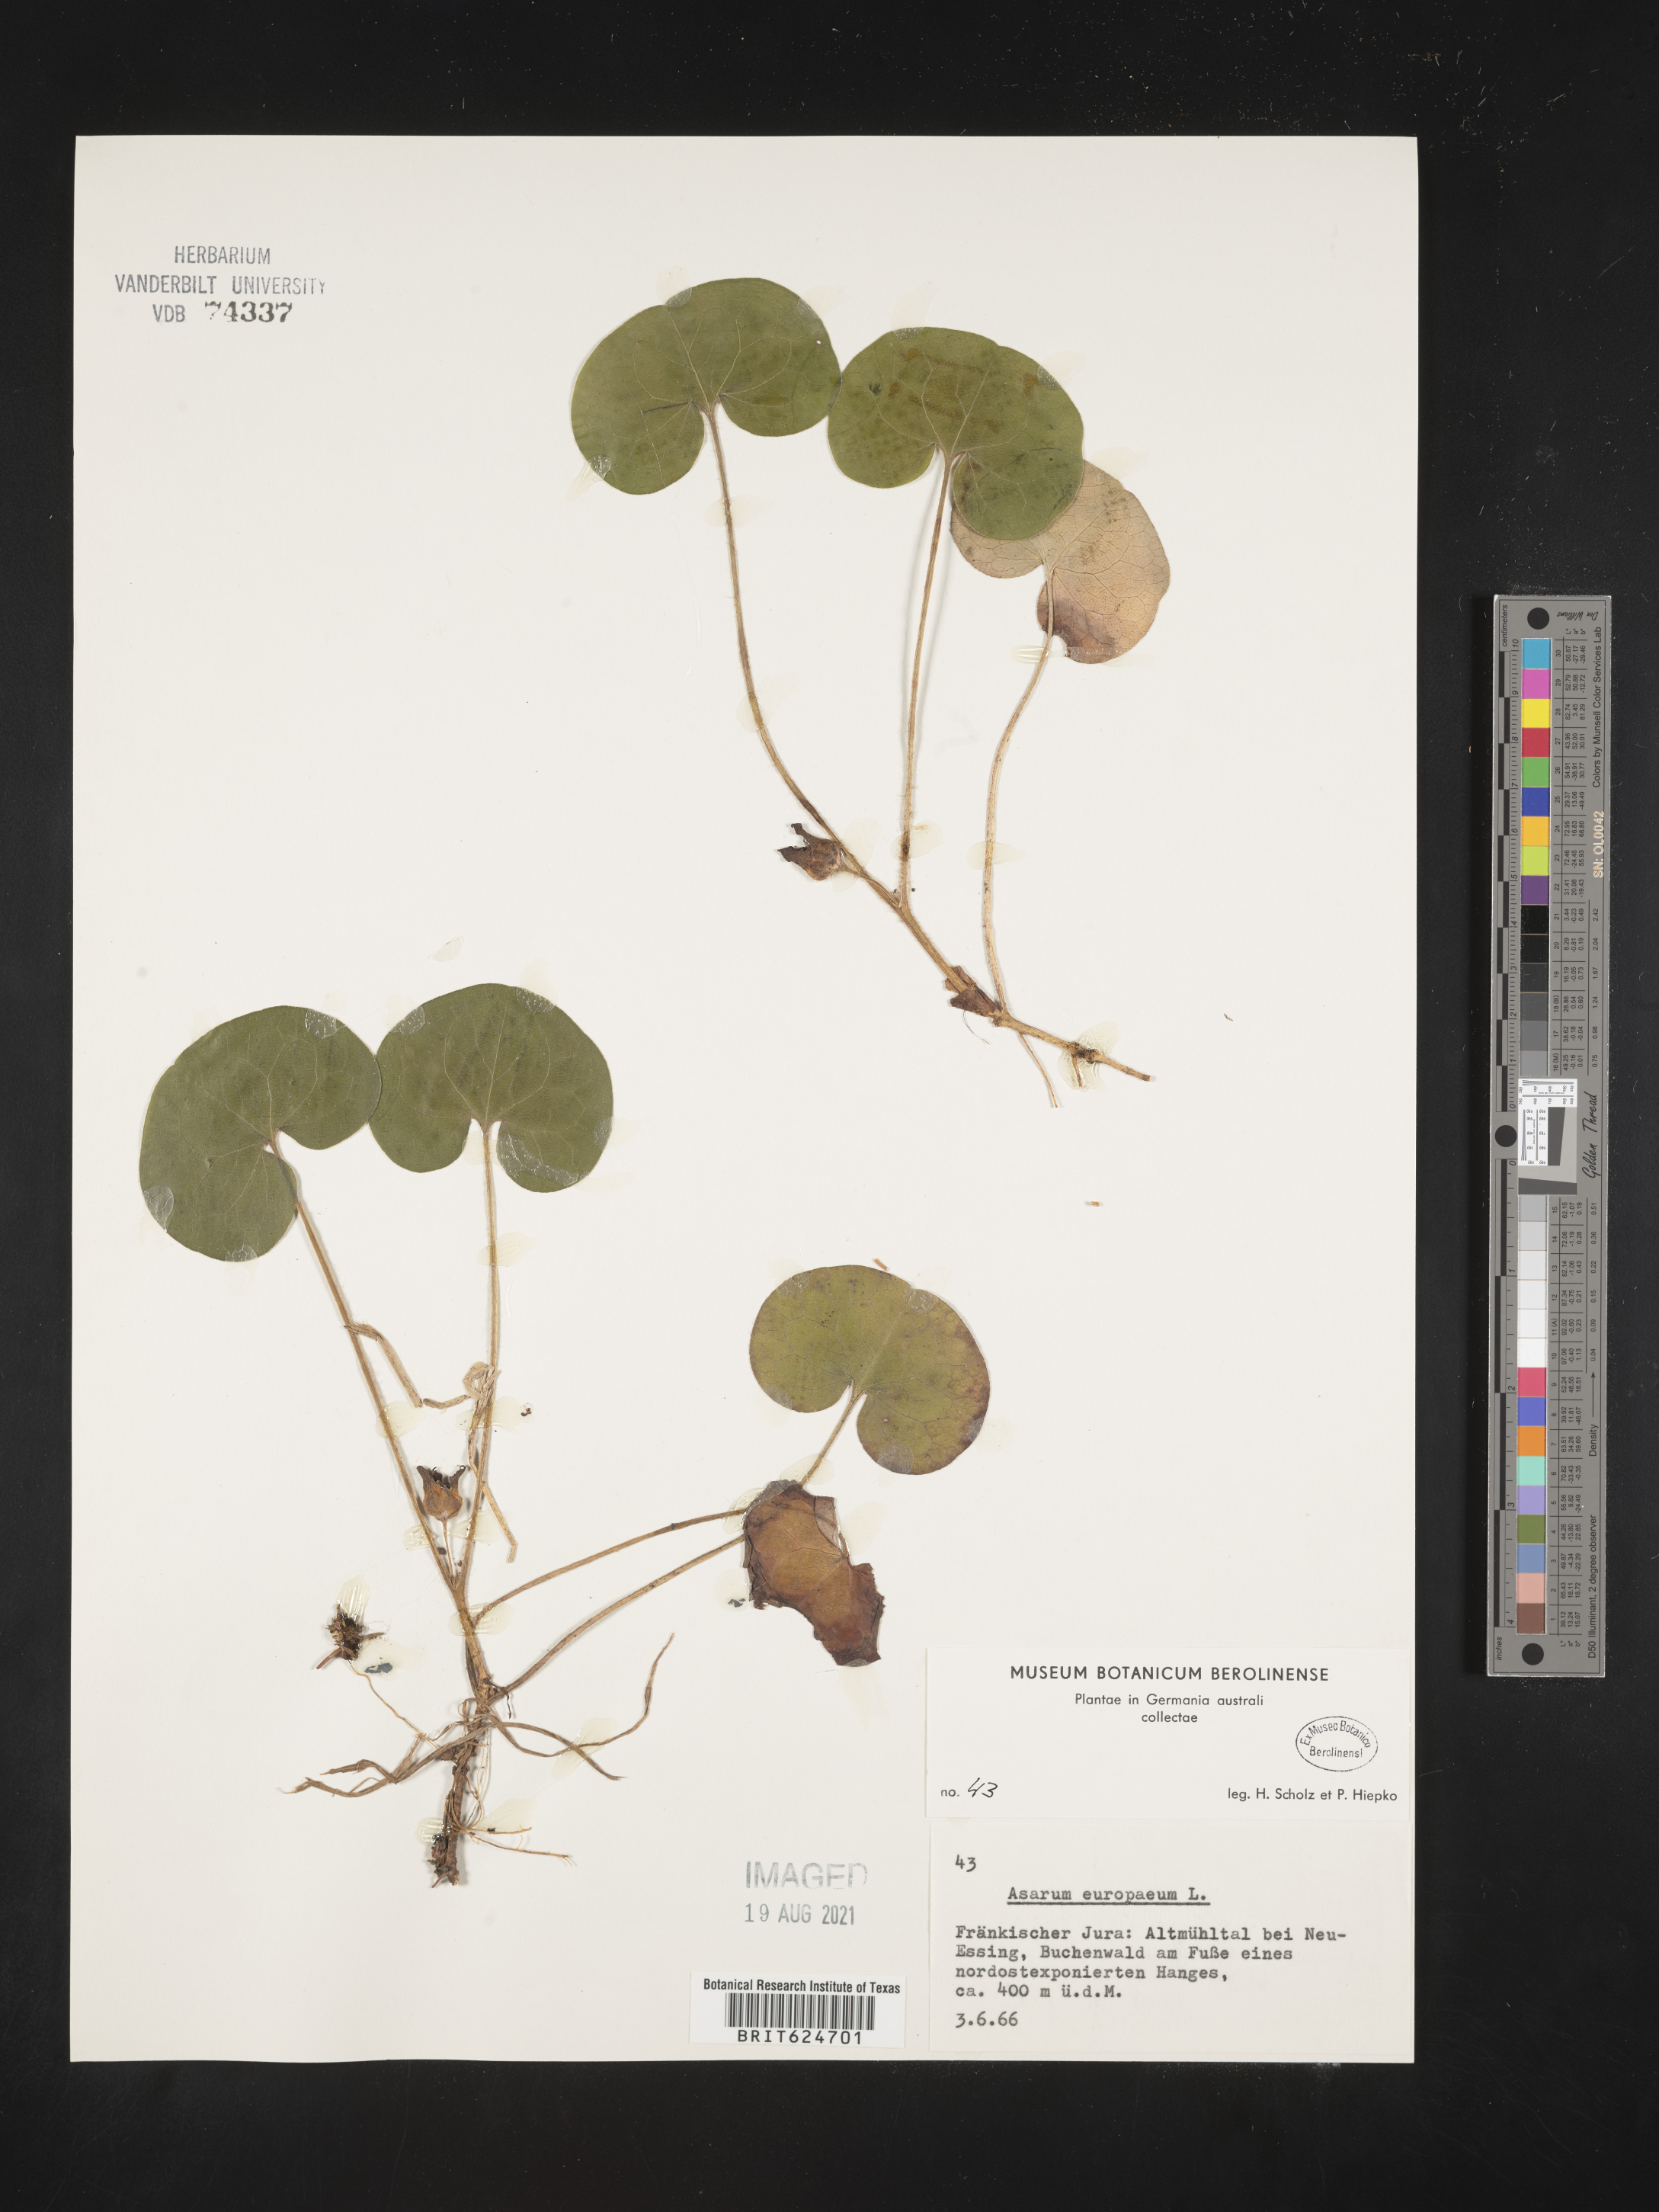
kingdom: Plantae
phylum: Tracheophyta
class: Magnoliopsida
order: Piperales
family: Aristolochiaceae
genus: Asarum
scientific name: Asarum europaeum
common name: Asarabacca
